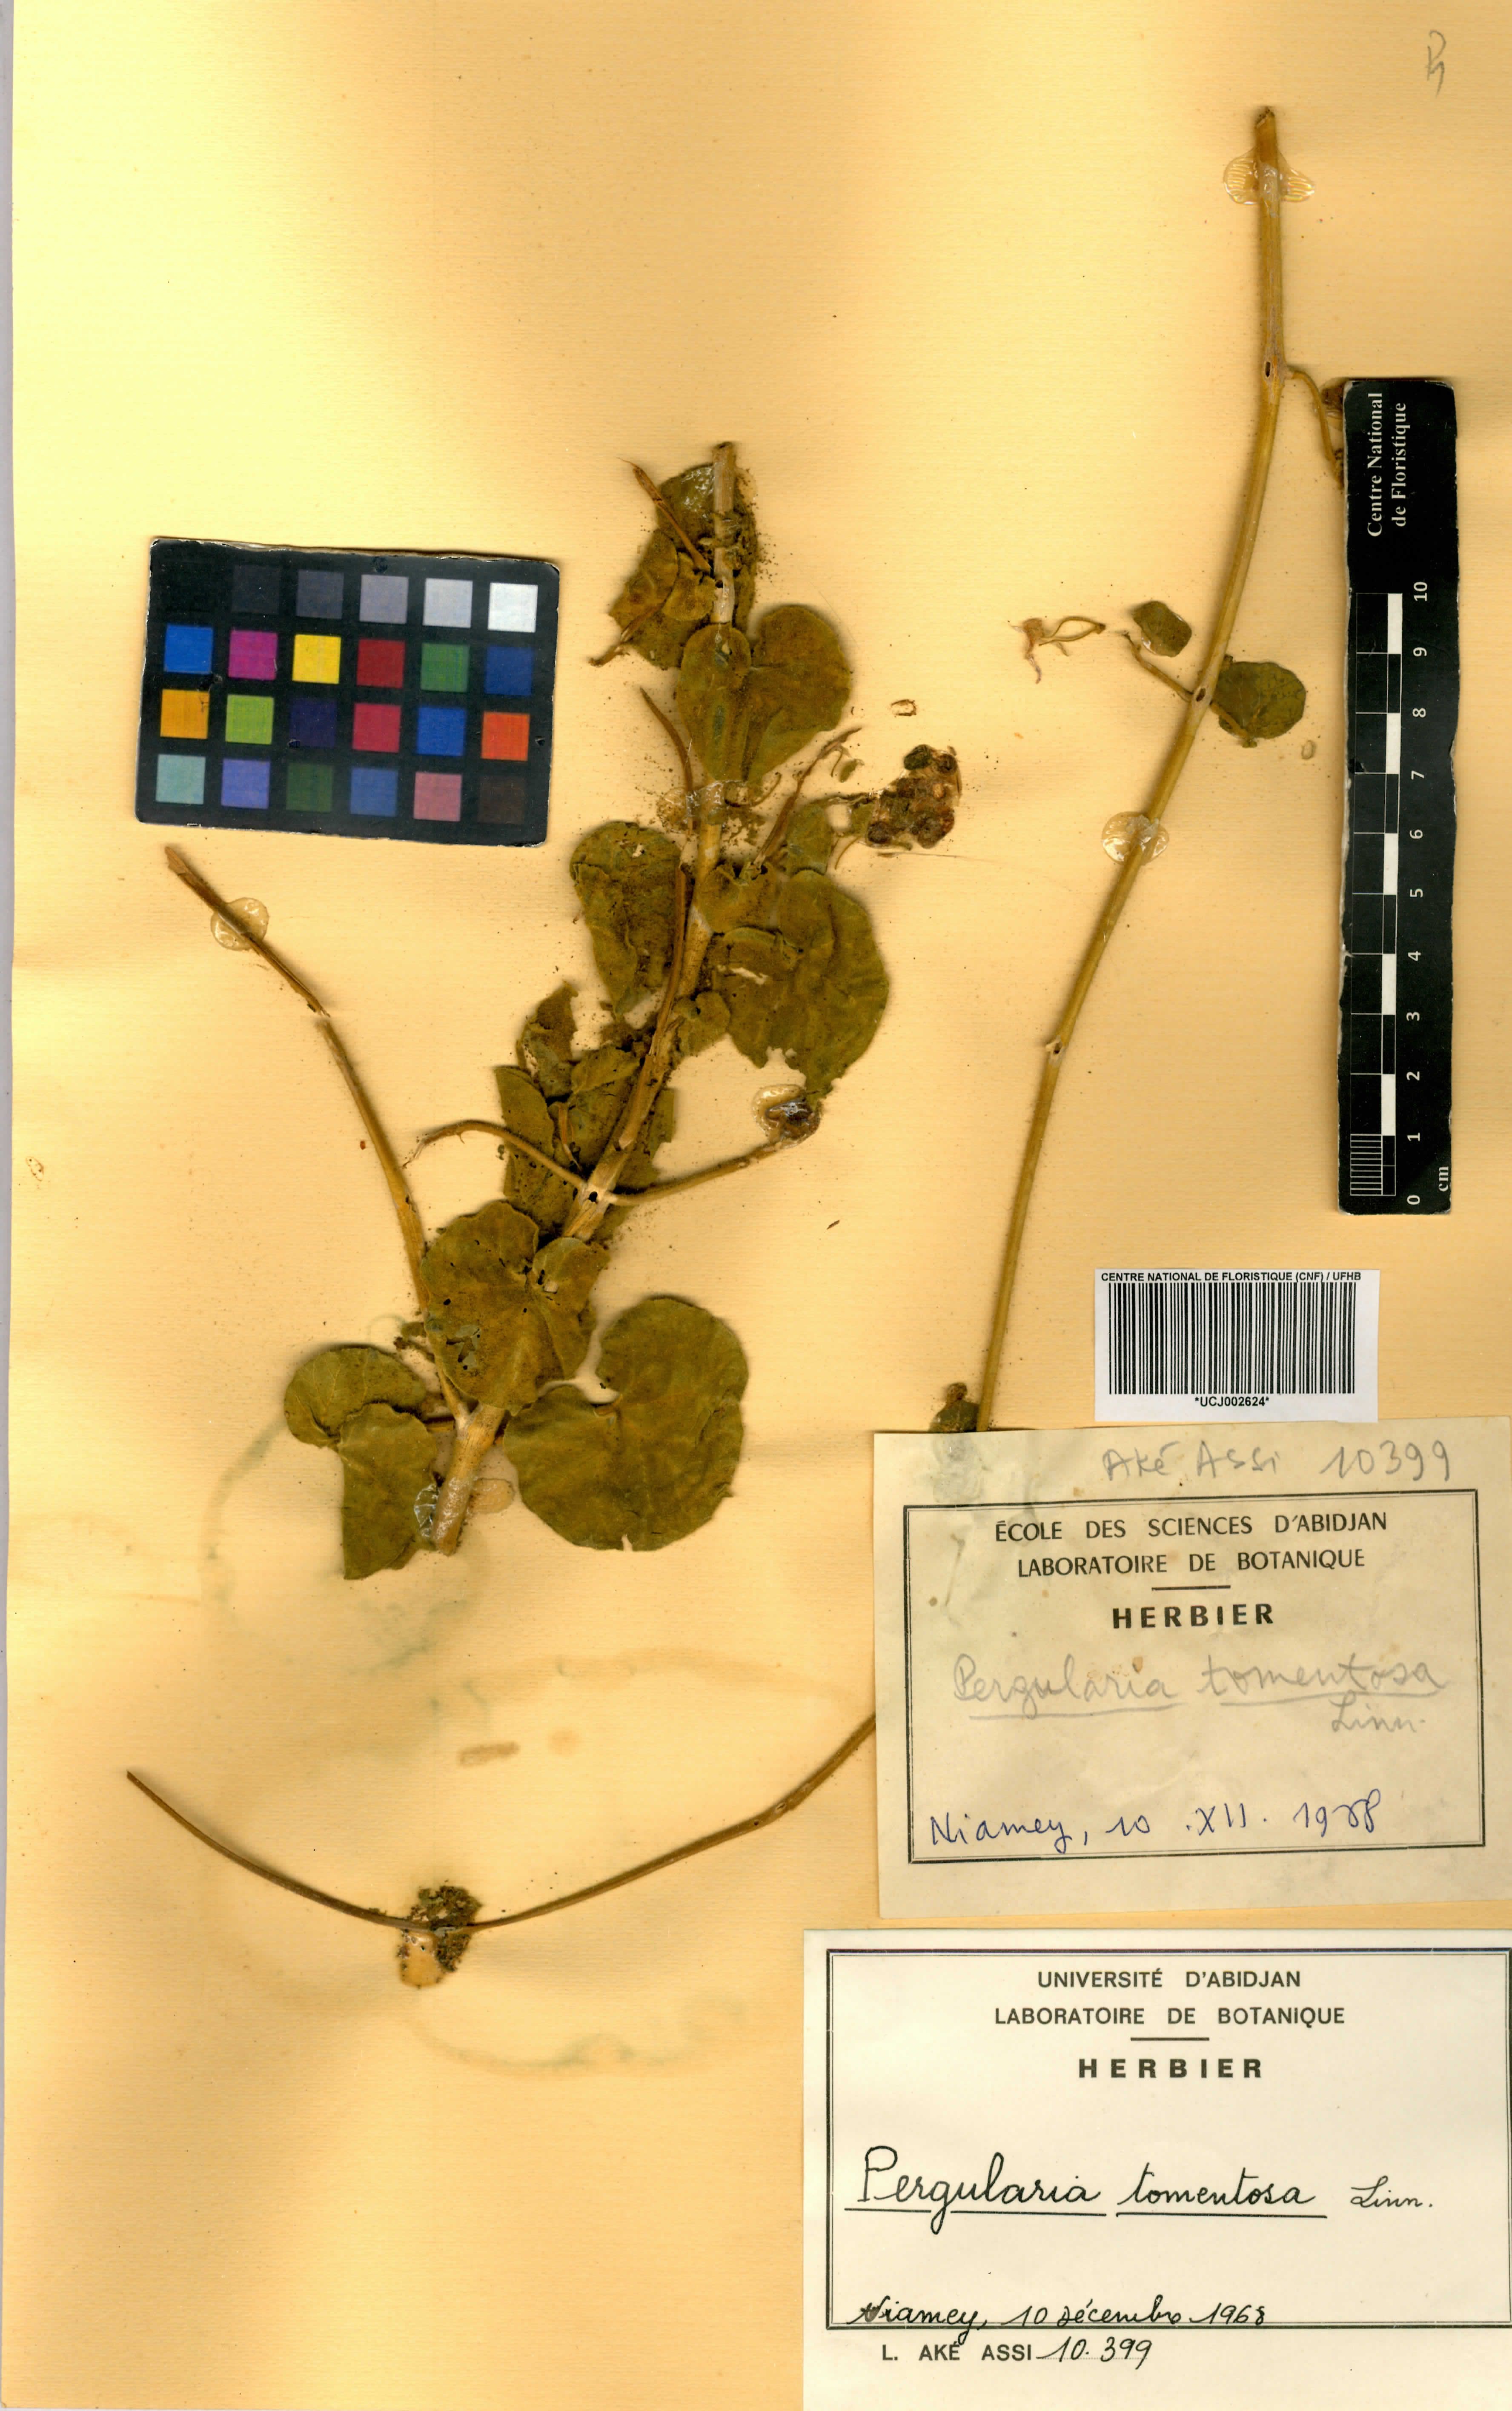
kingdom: Plantae
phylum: Tracheophyta
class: Magnoliopsida
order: Gentianales
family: Apocynaceae
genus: Pergularia
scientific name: Pergularia tomentosa
